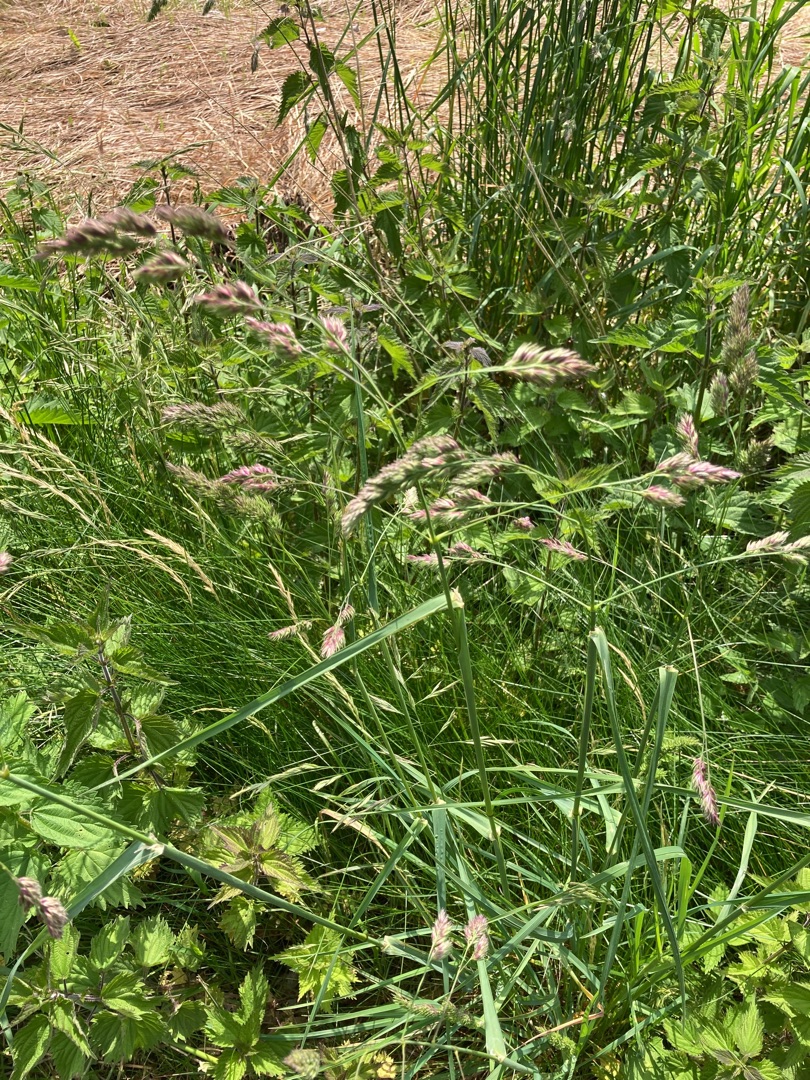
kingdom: Plantae
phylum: Tracheophyta
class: Liliopsida
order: Poales
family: Poaceae
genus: Dactylis
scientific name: Dactylis glomerata
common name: Almindelig hundegræs
